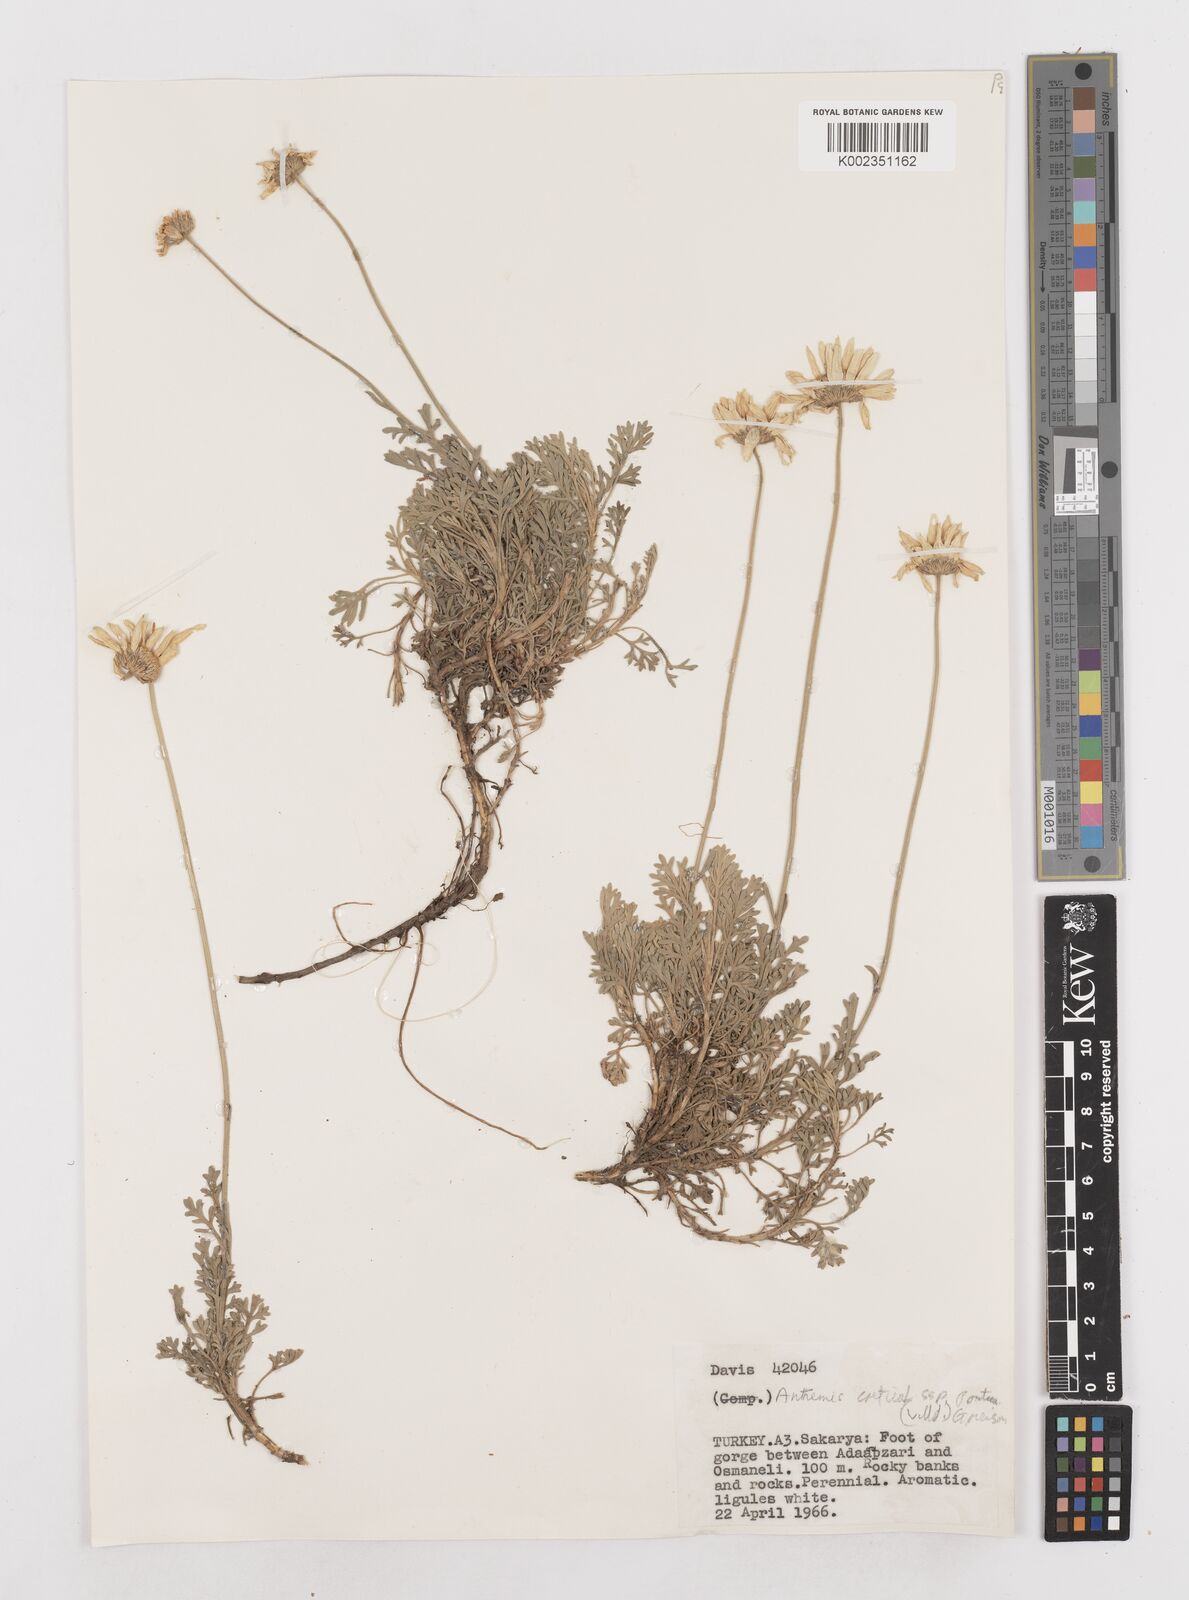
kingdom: Plantae
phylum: Tracheophyta
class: Magnoliopsida
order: Asterales
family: Asteraceae
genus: Anthemis
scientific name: Anthemis cretica
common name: Mountain dog-daisy
